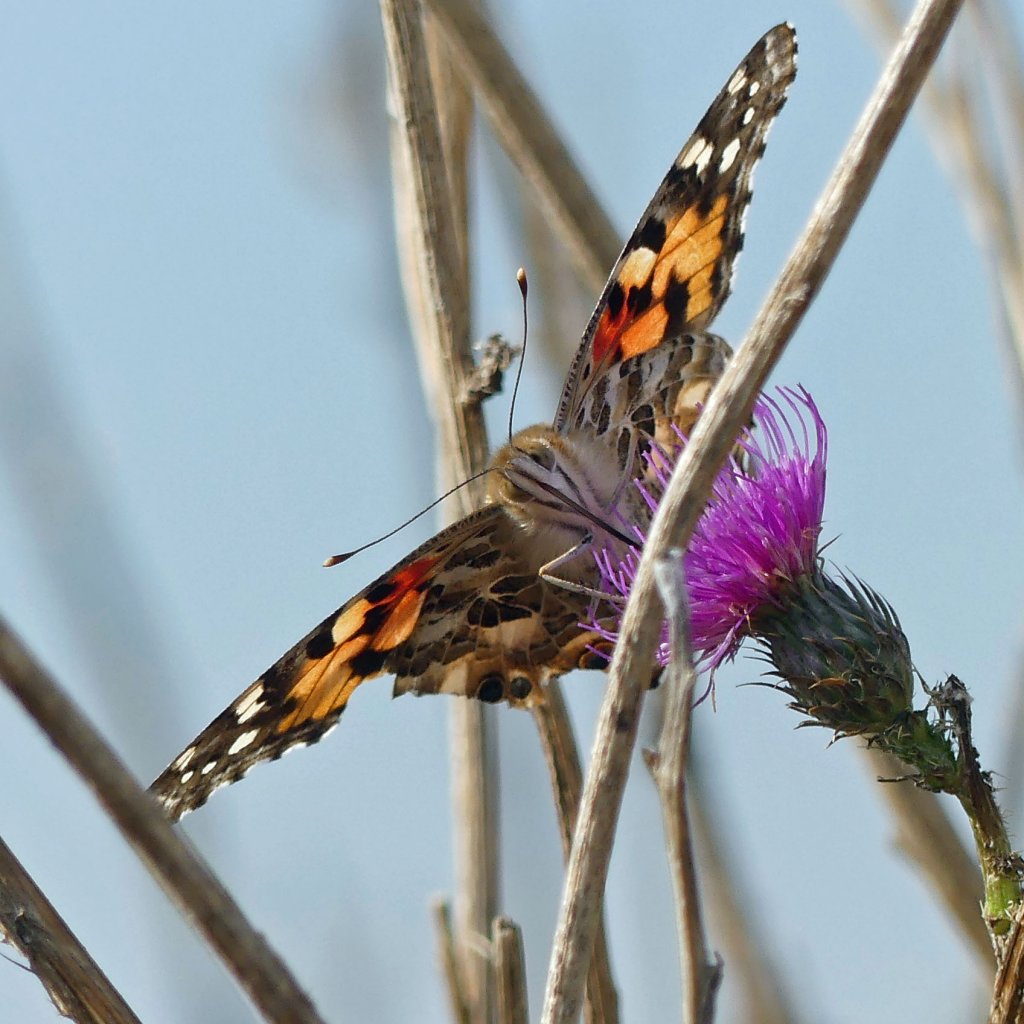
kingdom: Animalia
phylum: Arthropoda
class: Insecta
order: Lepidoptera
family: Nymphalidae
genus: Vanessa
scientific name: Vanessa cardui
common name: Painted Lady
